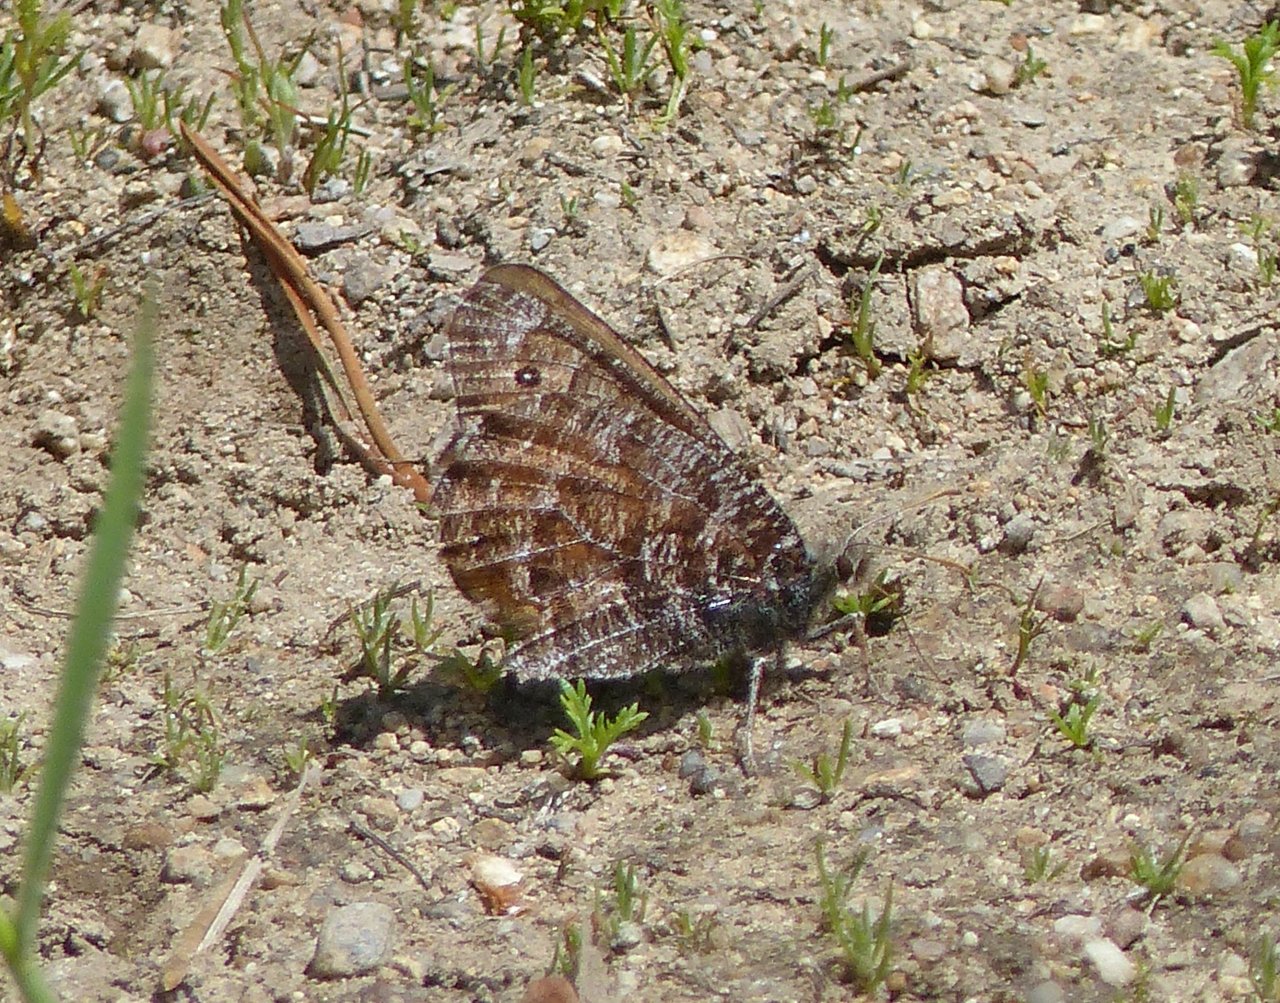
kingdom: Animalia
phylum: Arthropoda
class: Insecta
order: Lepidoptera
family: Nymphalidae
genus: Oeneis
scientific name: Oeneis chryxus
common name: Chryxus Arctic
